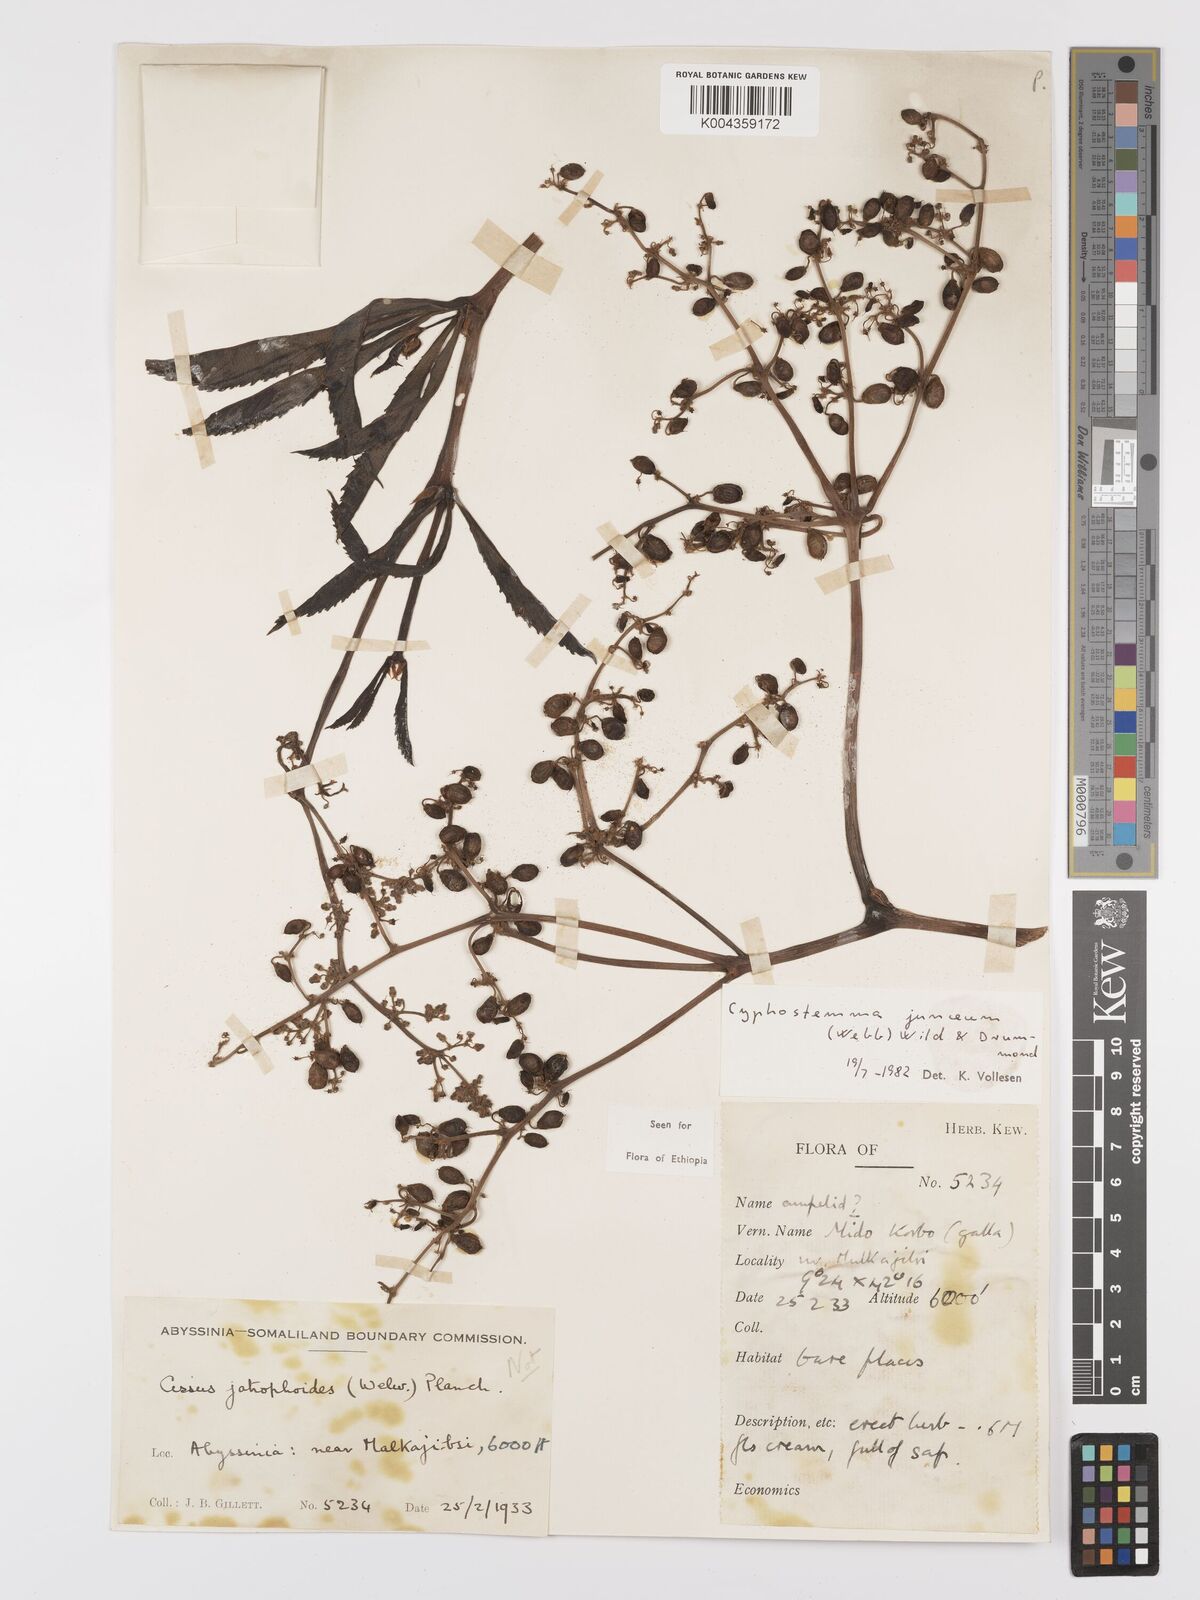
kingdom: Plantae
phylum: Tracheophyta
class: Magnoliopsida
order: Vitales
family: Vitaceae
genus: Cyphostemma
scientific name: Cyphostemma junceum
